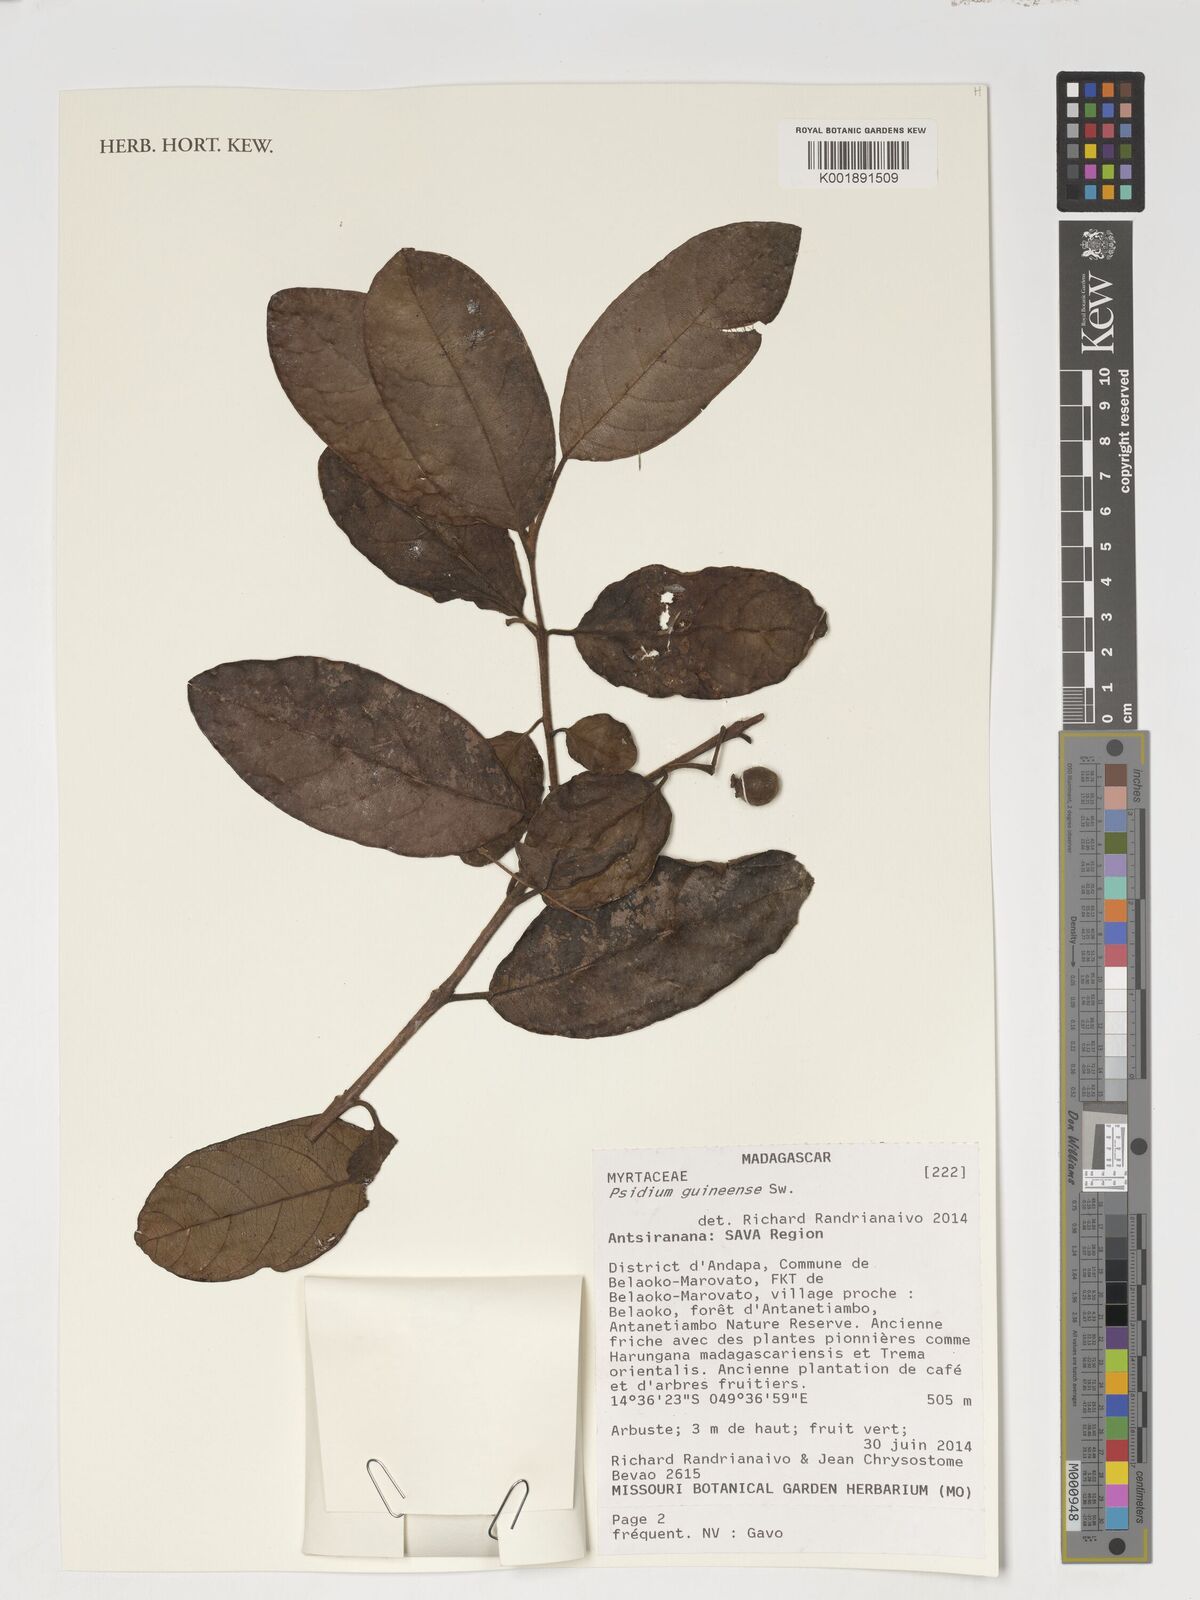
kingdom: Plantae
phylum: Tracheophyta
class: Magnoliopsida
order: Myrtales
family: Myrtaceae
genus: Psidium
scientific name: Psidium guineense
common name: Brazilian guava
